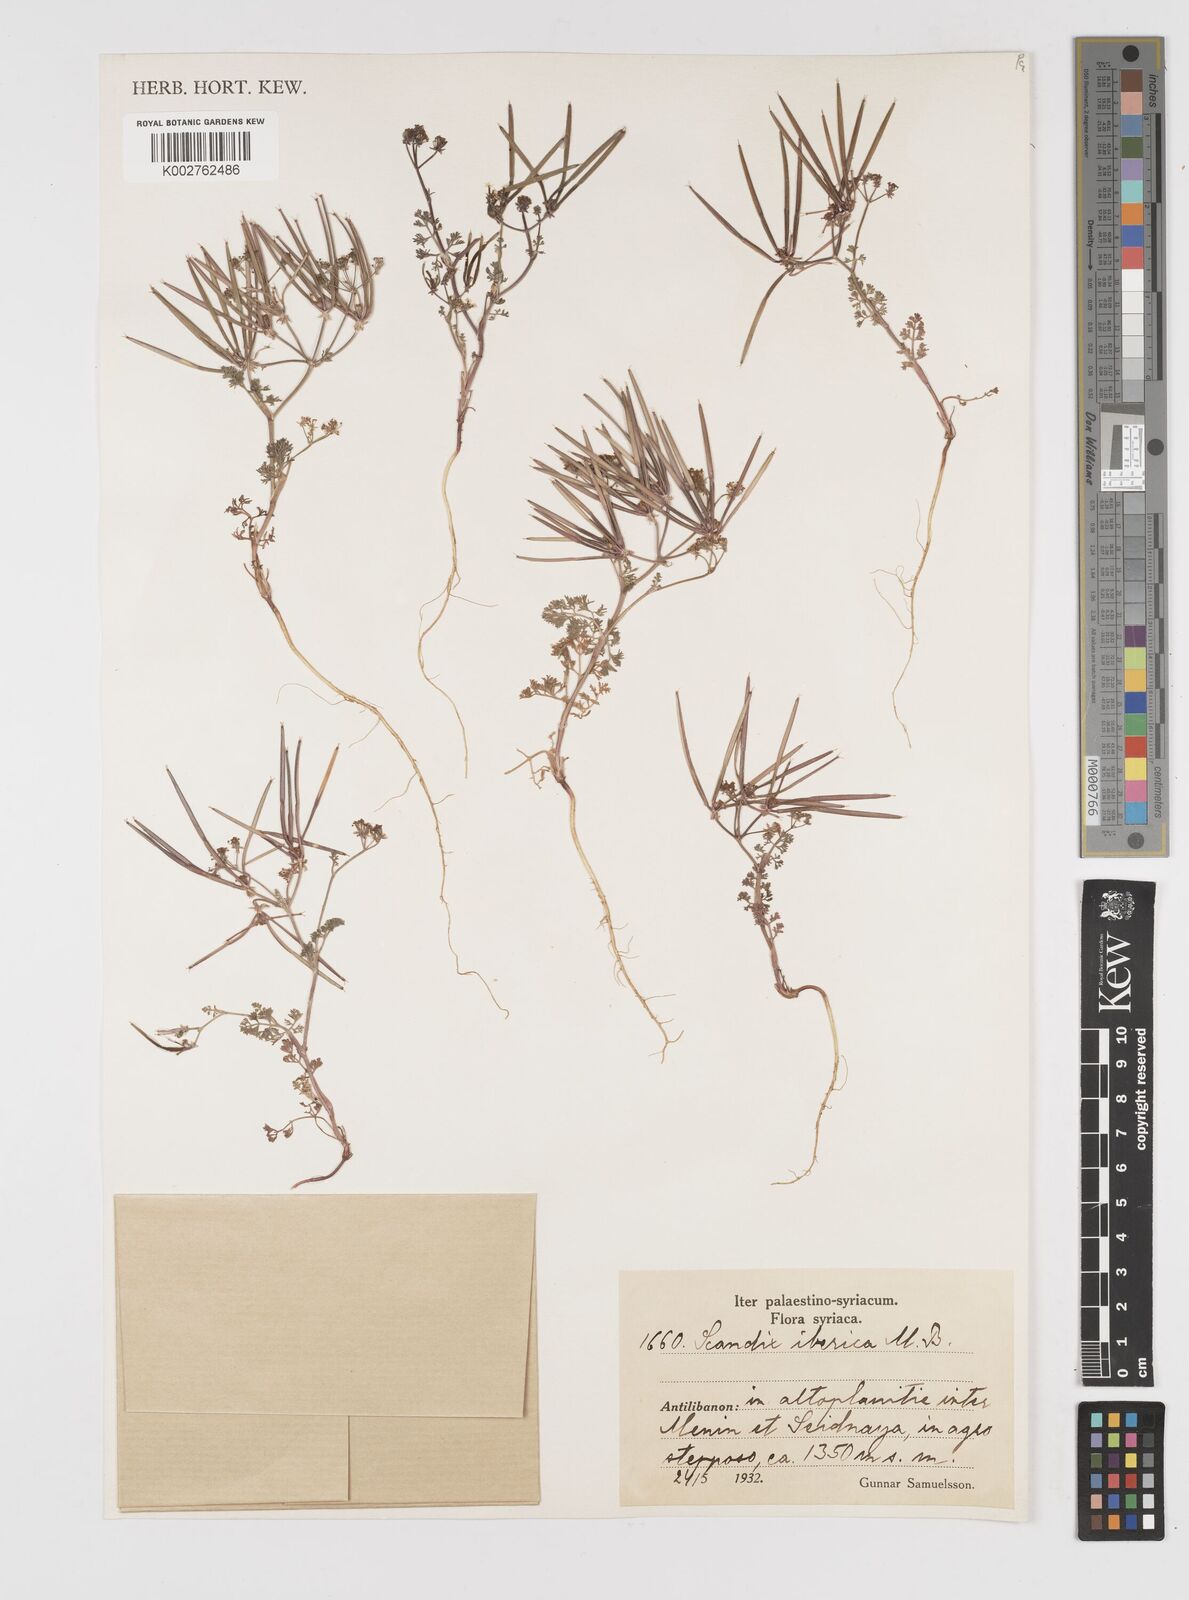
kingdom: Plantae
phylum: Tracheophyta
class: Magnoliopsida
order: Apiales
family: Apiaceae
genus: Scandix
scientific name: Scandix iberica
